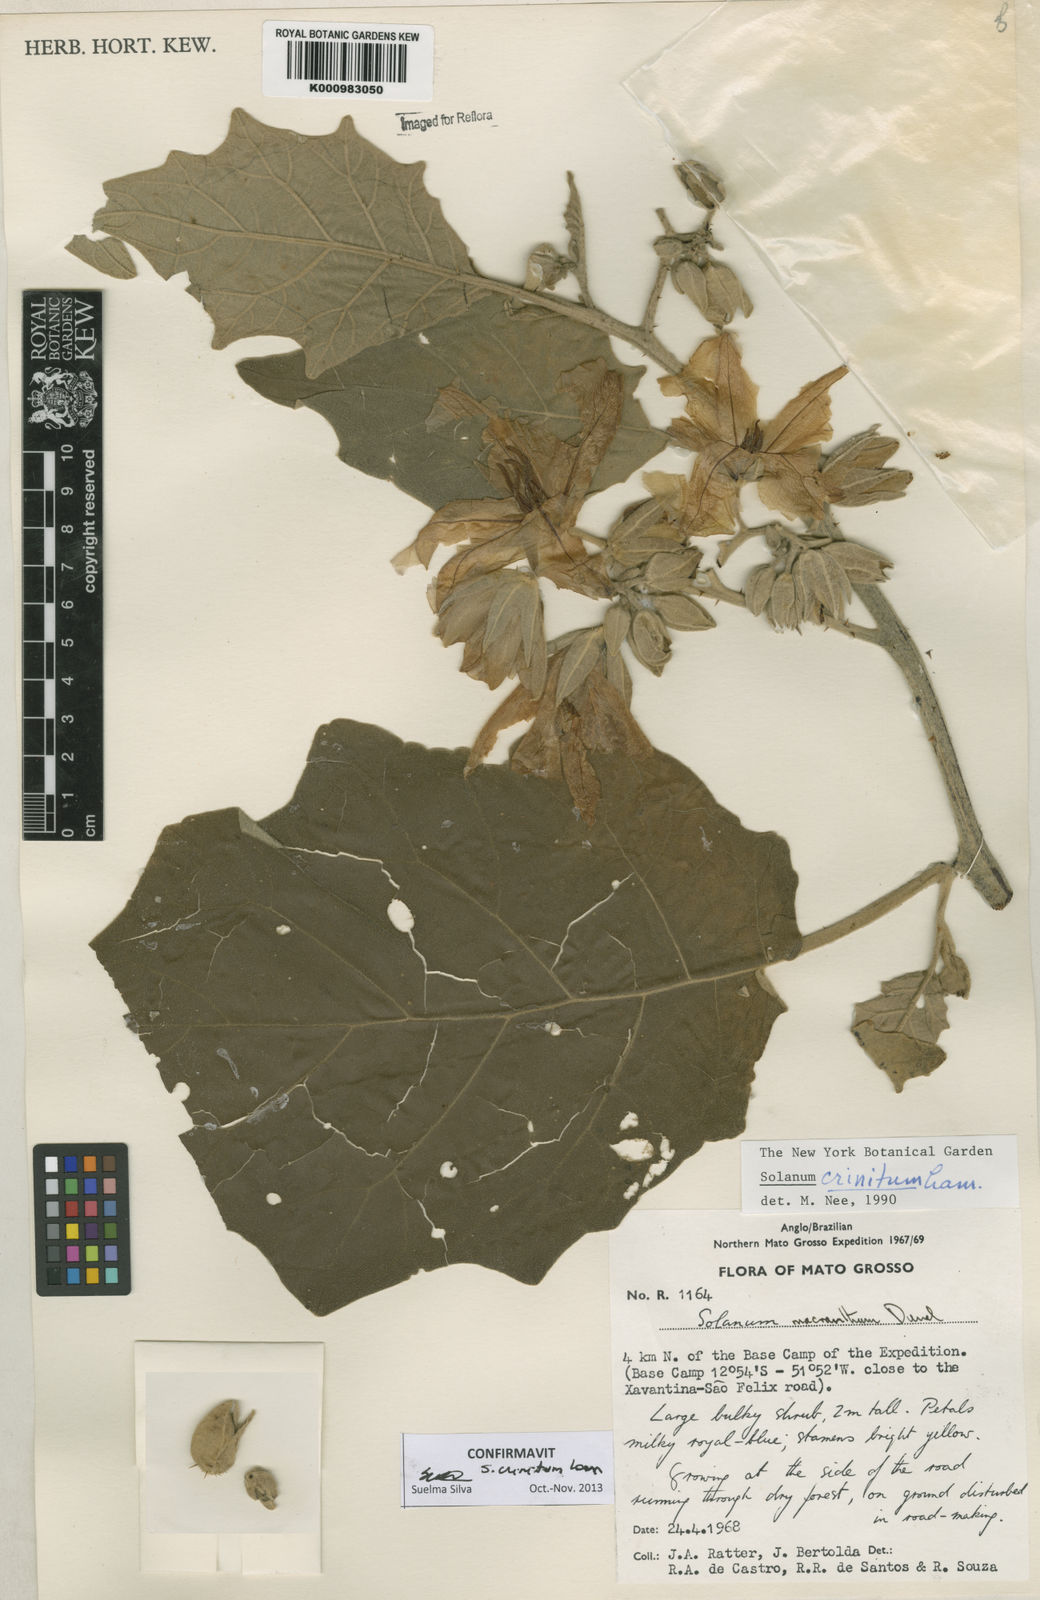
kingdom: Plantae
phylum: Tracheophyta
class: Magnoliopsida
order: Solanales
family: Solanaceae
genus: Solanum
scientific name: Solanum crinitum
